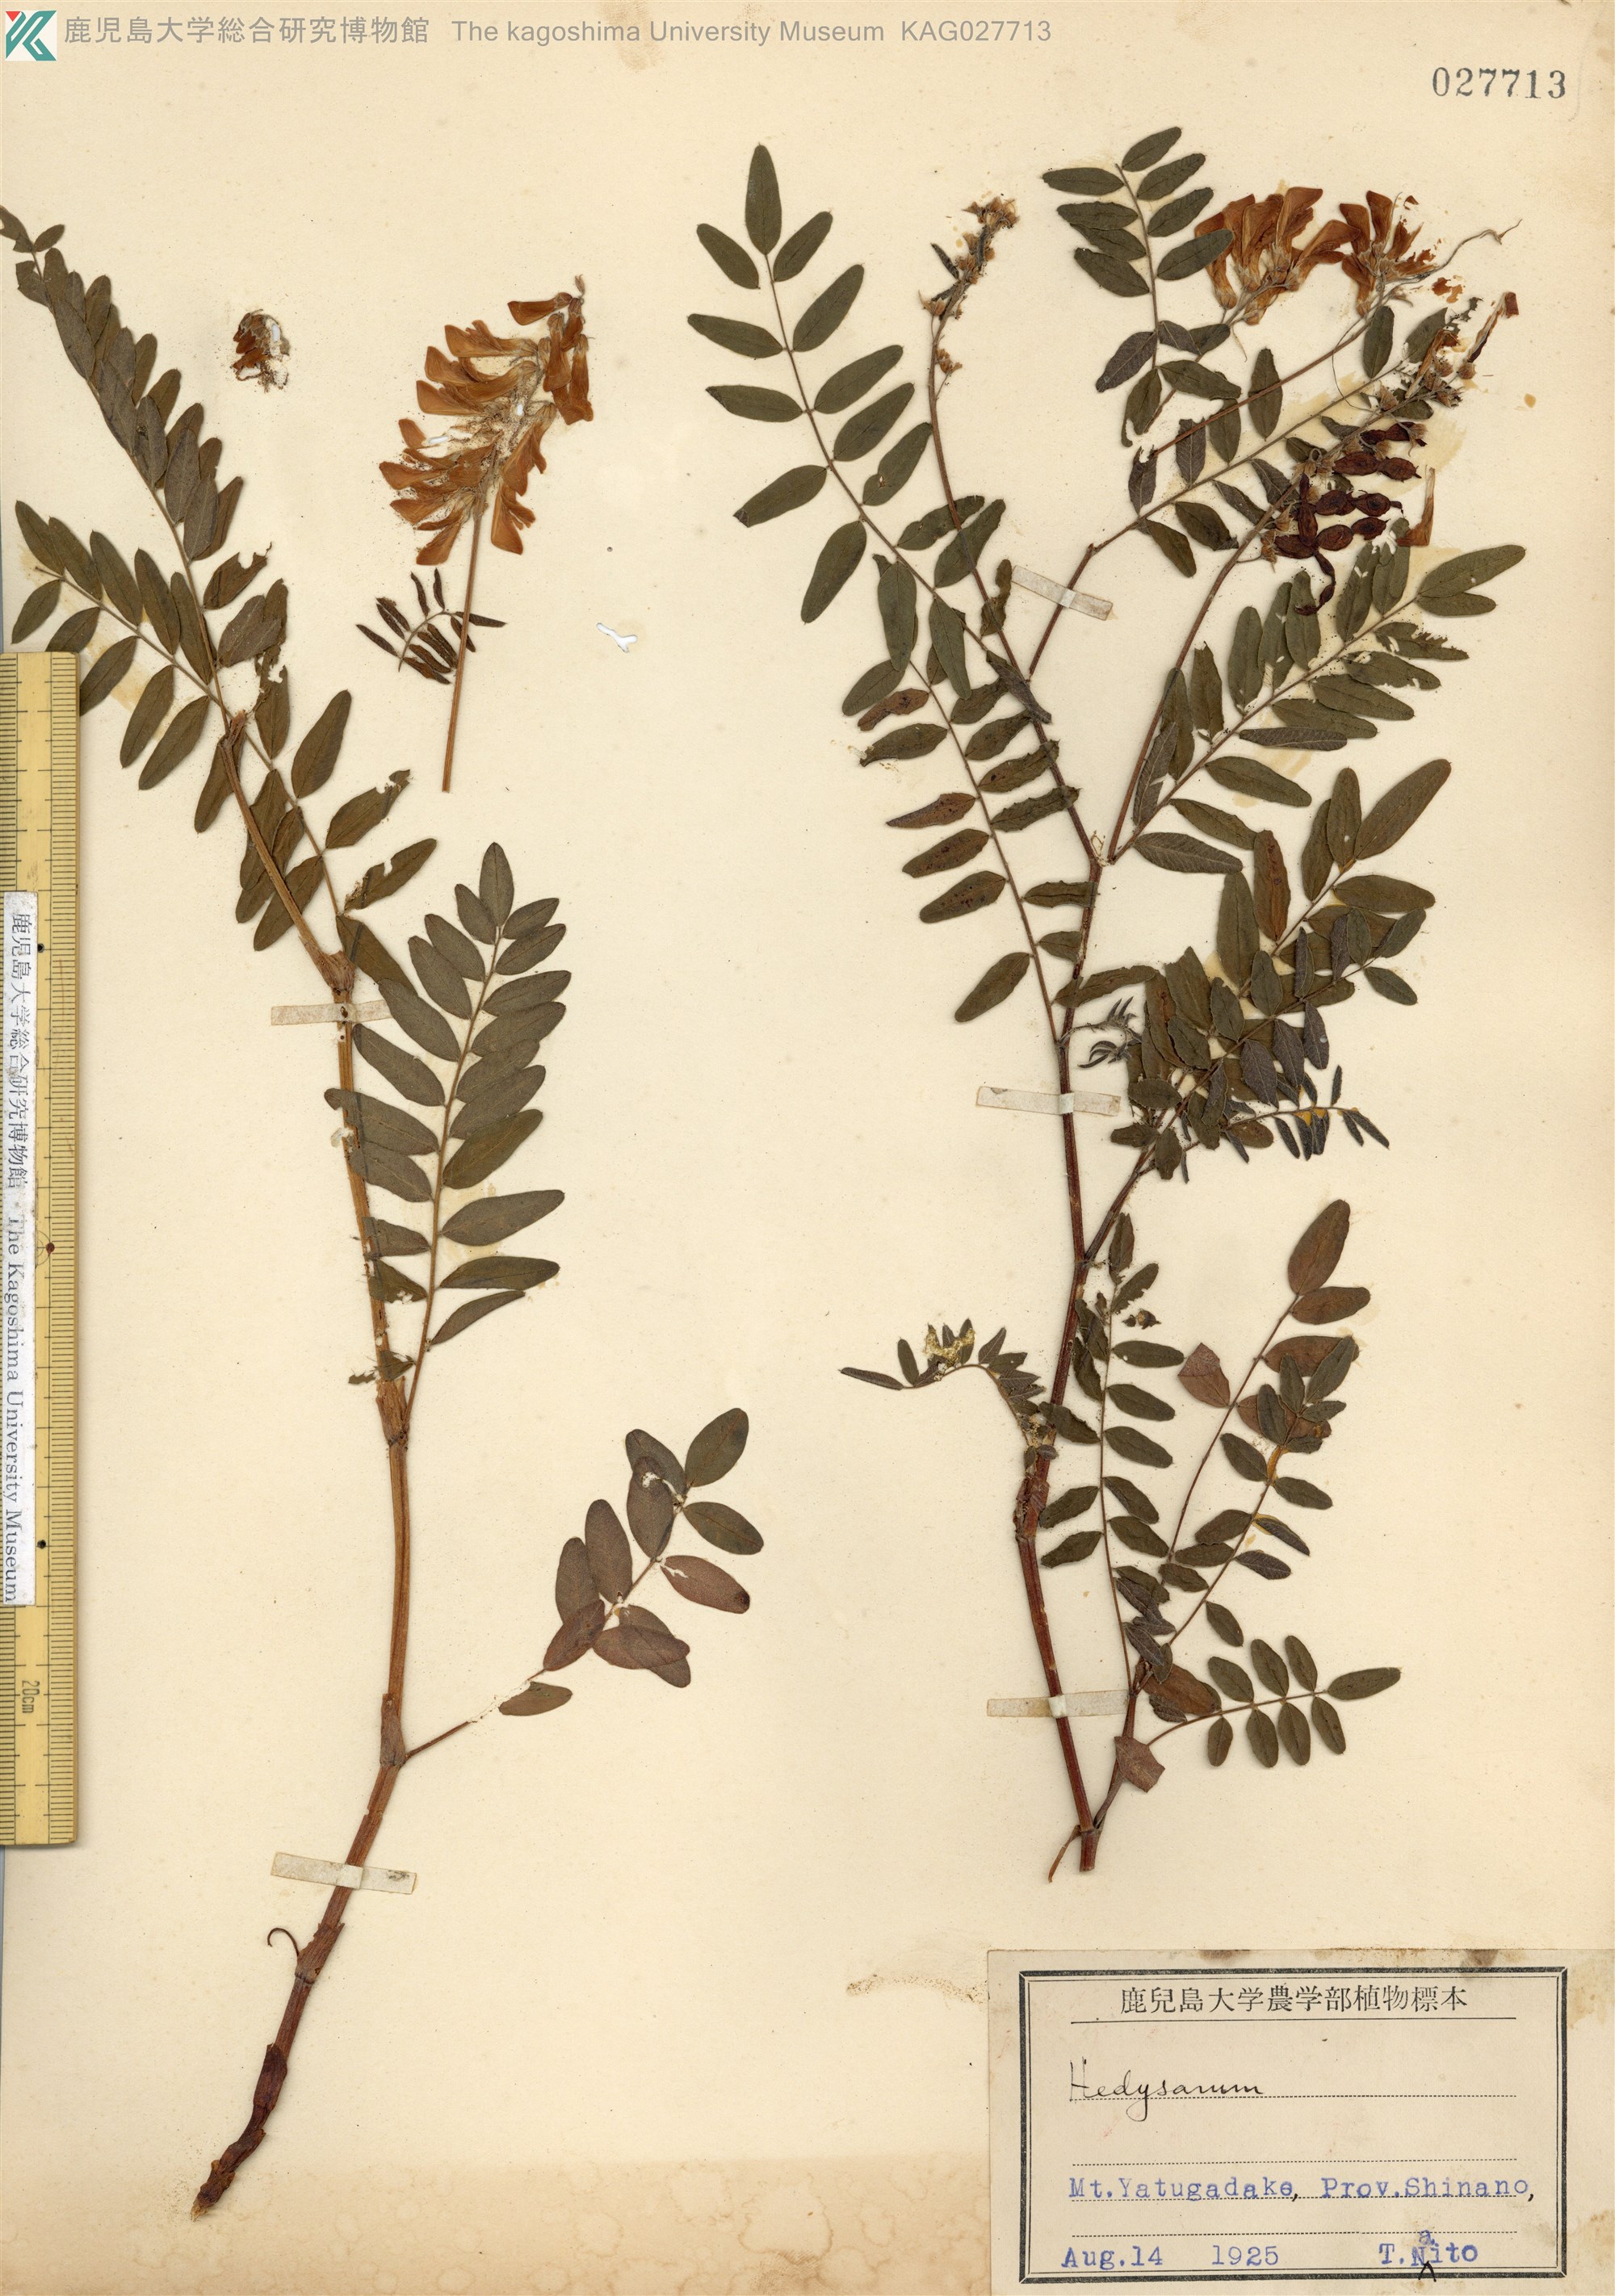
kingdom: Plantae
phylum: Tracheophyta
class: Magnoliopsida
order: Fabales
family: Fabaceae
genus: Hedysarum
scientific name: Hedysarum vicioides
